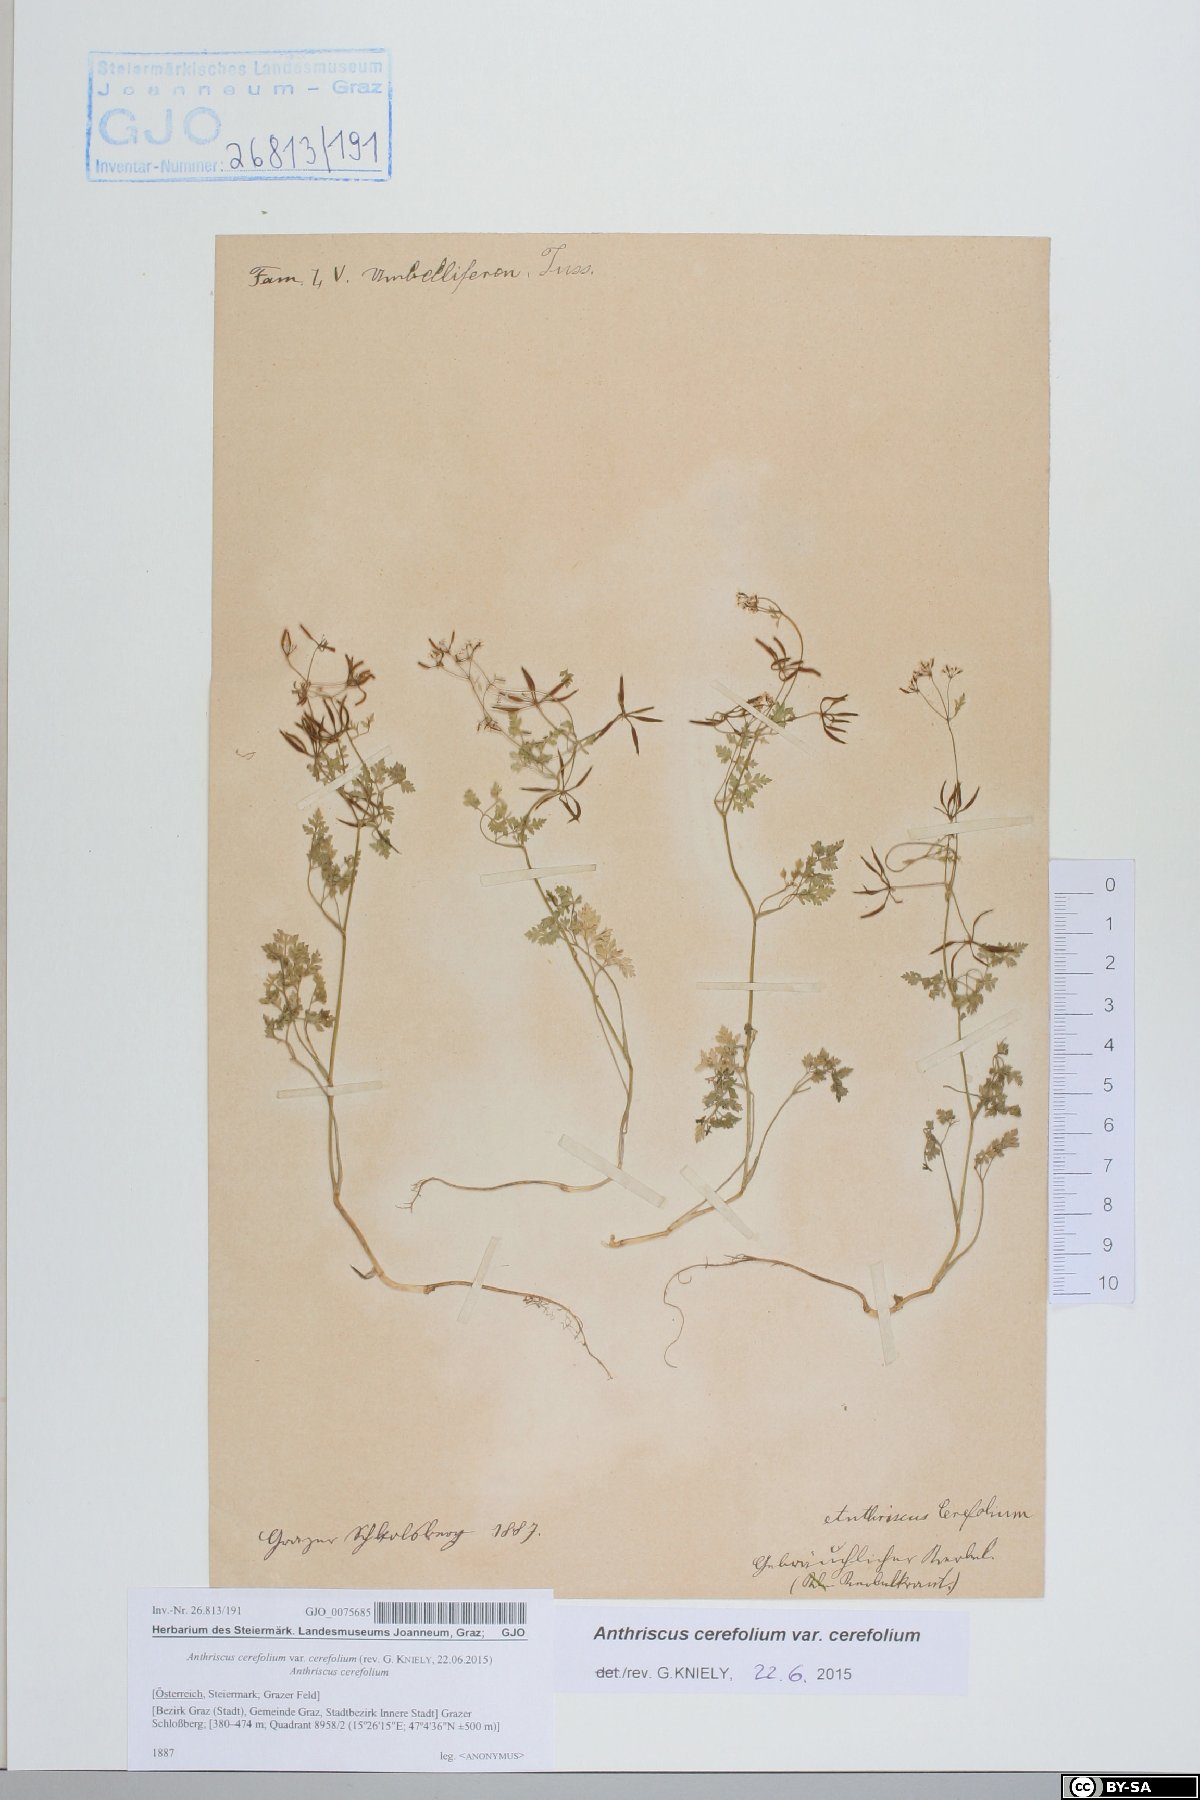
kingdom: Plantae
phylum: Tracheophyta
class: Magnoliopsida
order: Apiales
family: Apiaceae
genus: Anthriscus
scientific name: Anthriscus cerefolium
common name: Garden chervil
